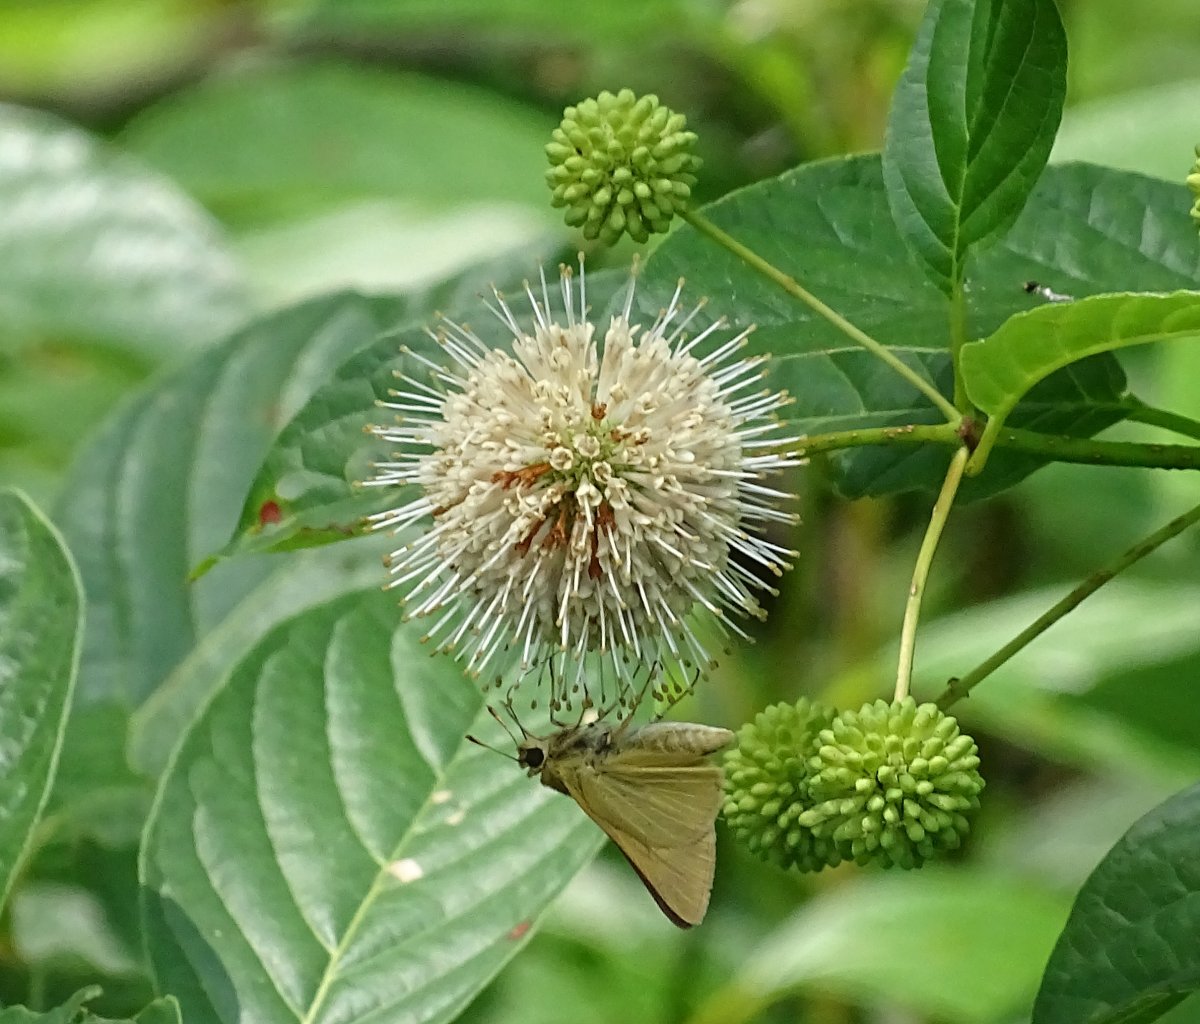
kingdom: Animalia
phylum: Arthropoda
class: Insecta
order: Lepidoptera
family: Hesperiidae
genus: Problema
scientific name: Problema bulenta
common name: Rare Skipper
